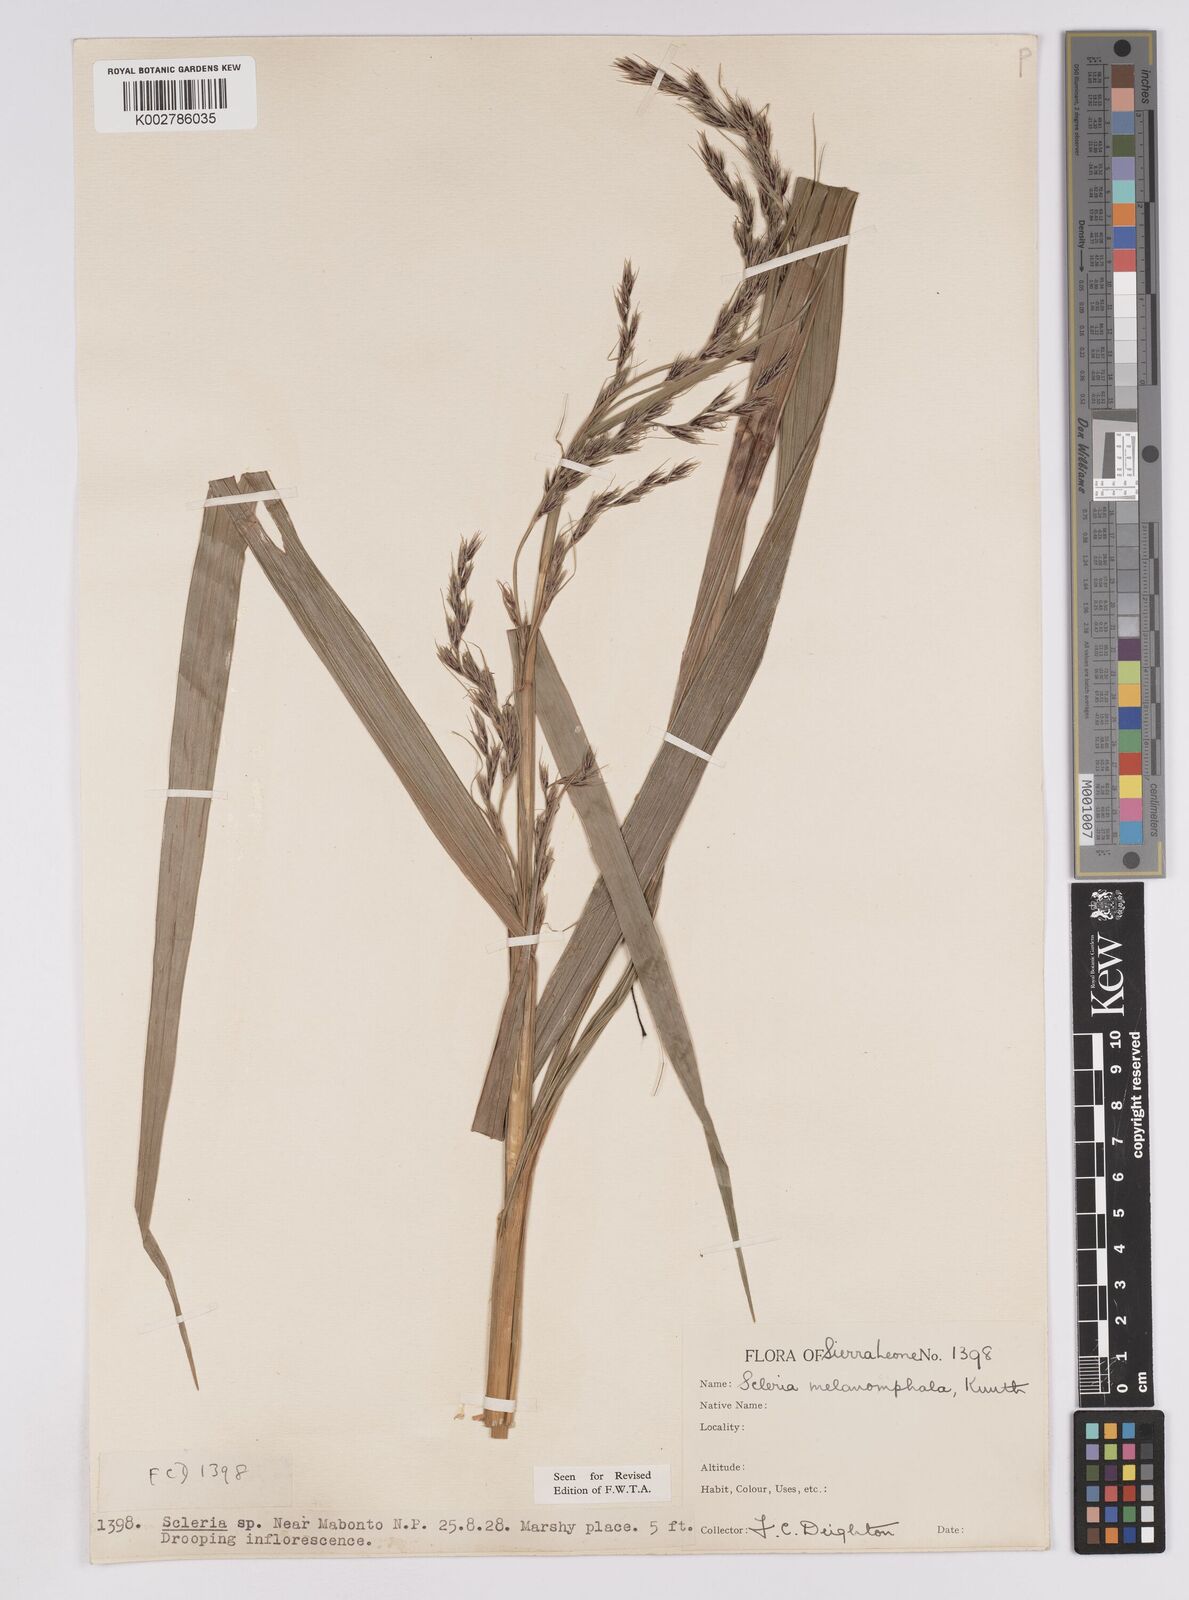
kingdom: Plantae
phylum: Tracheophyta
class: Liliopsida
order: Poales
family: Cyperaceae
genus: Scleria
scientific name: Scleria melanomphala
